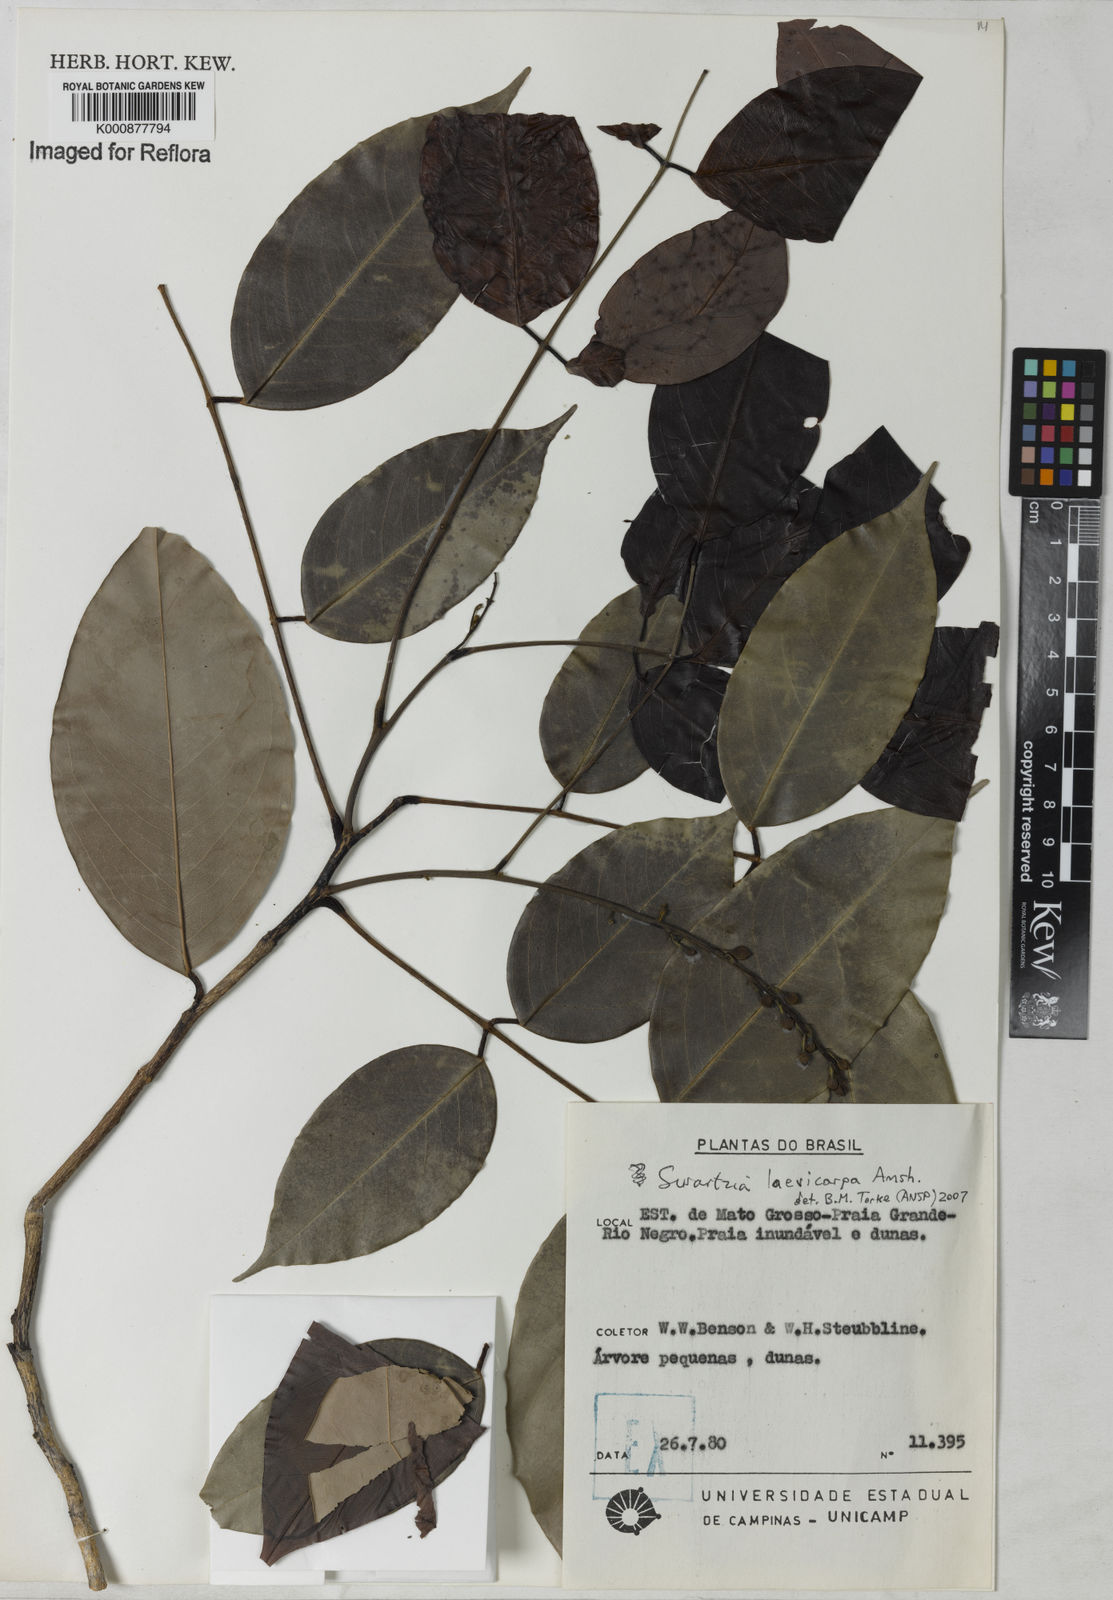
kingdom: Plantae
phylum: Tracheophyta
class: Magnoliopsida
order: Fabales
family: Fabaceae
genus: Swartzia
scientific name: Swartzia laevicarpa
